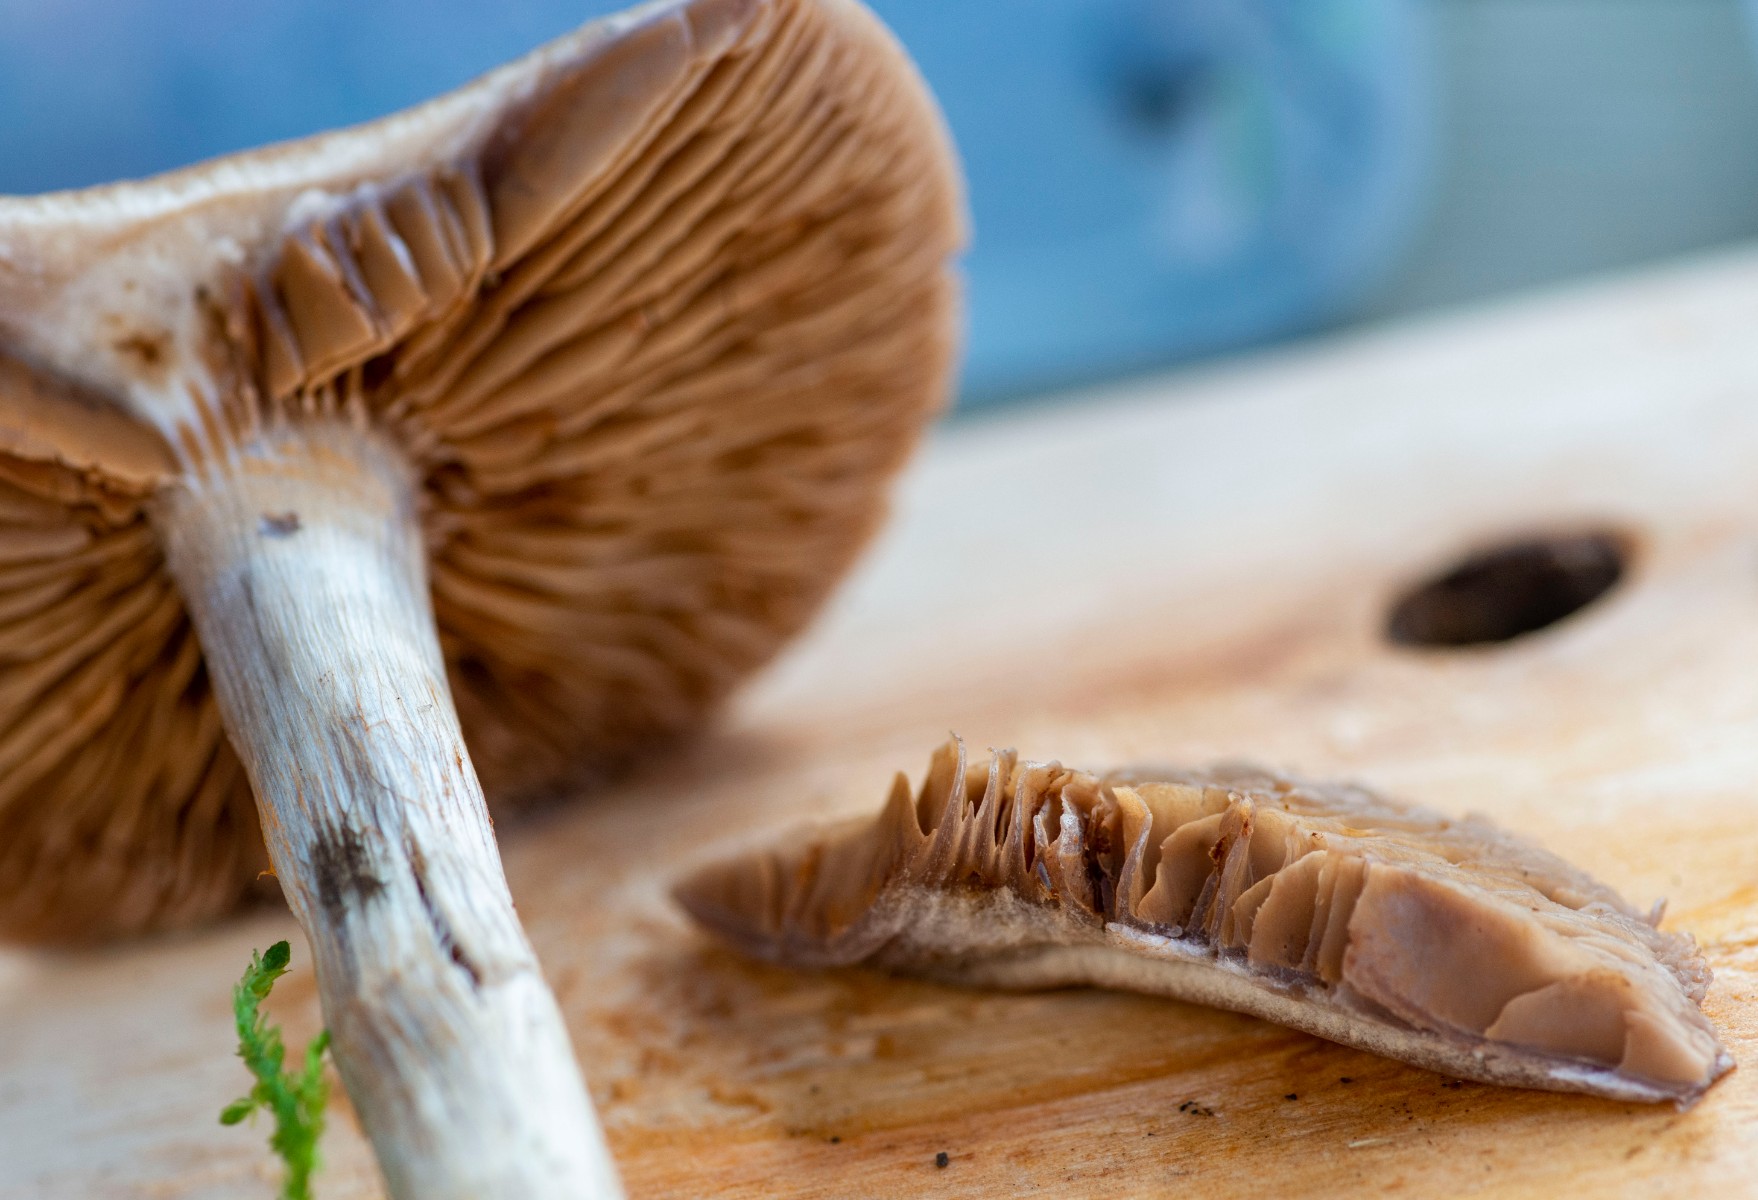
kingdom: Fungi
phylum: Basidiomycota
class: Agaricomycetes
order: Agaricales
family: Cortinariaceae
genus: Cortinarius
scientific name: Cortinarius
